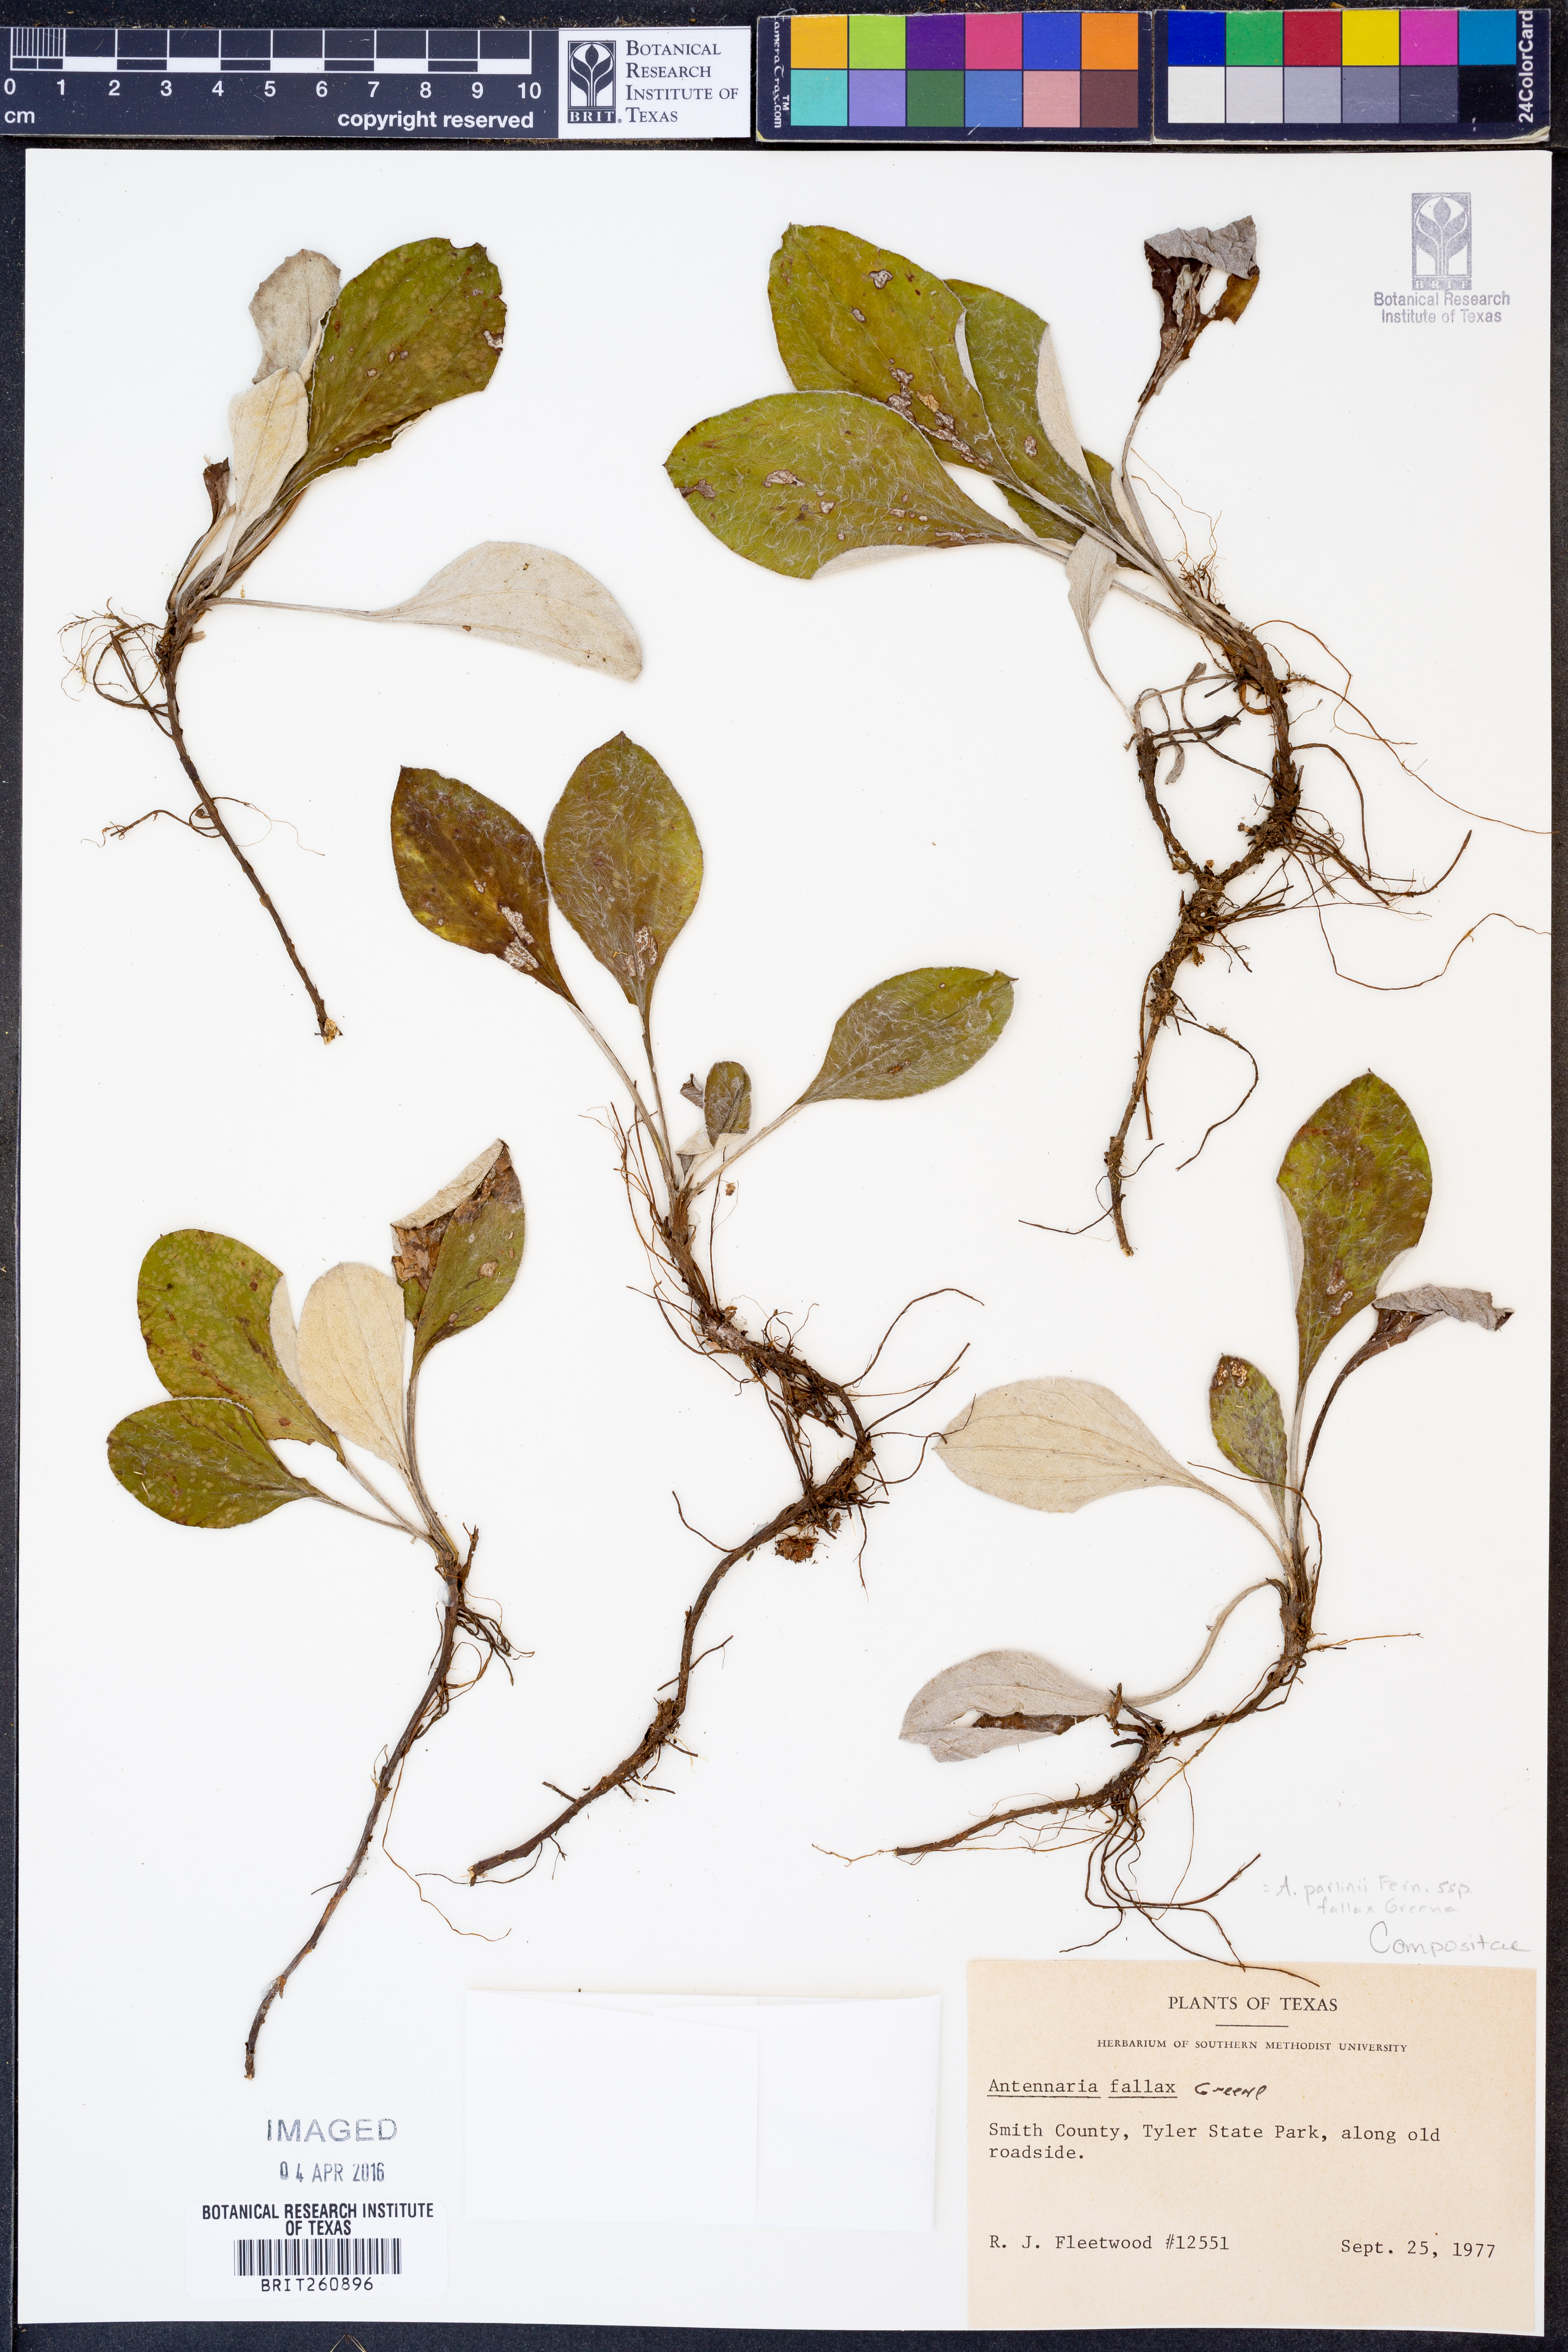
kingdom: Plantae
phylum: Tracheophyta
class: Magnoliopsida
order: Asterales
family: Asteraceae
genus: Antennaria
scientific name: Antennaria parlinii
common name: Parlin's pussytoes
